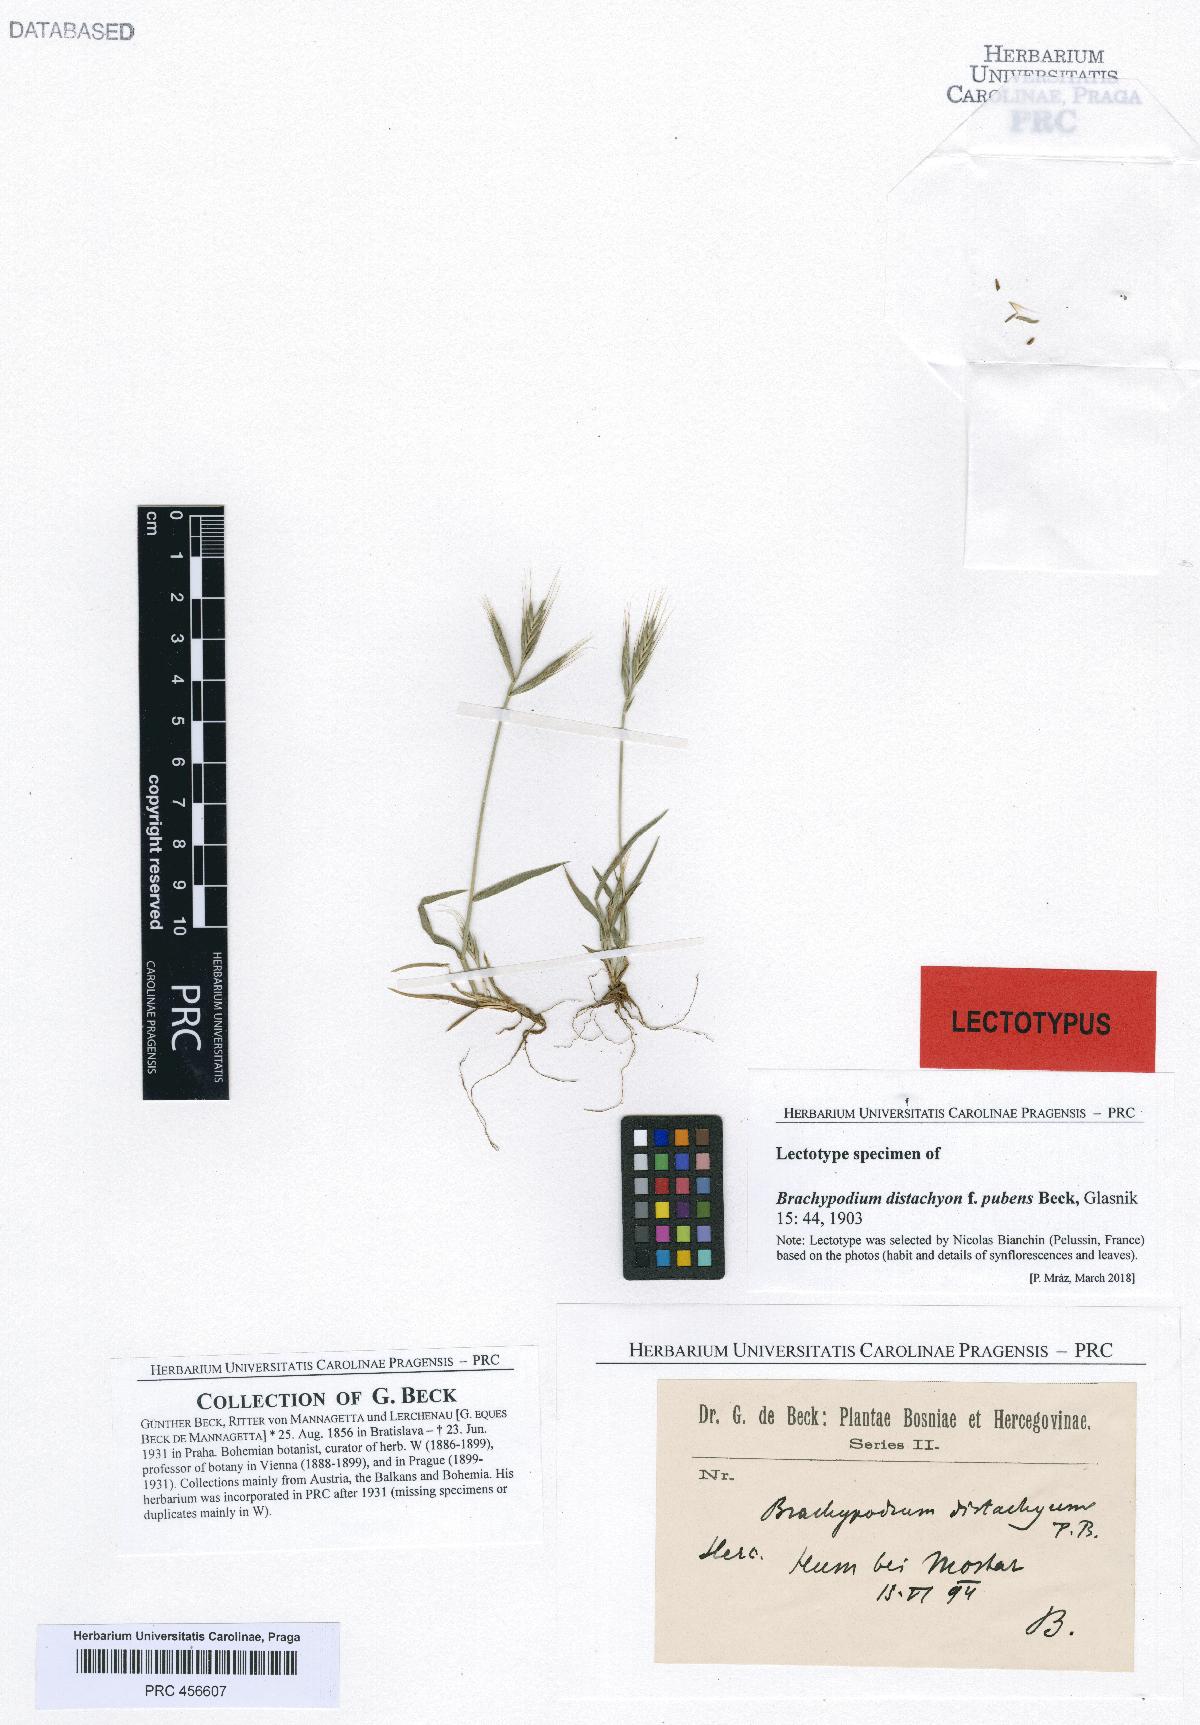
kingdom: Plantae
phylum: Tracheophyta
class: Liliopsida
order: Poales
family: Poaceae
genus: Brachypodium
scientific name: Brachypodium distachyon
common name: Stiff brome
